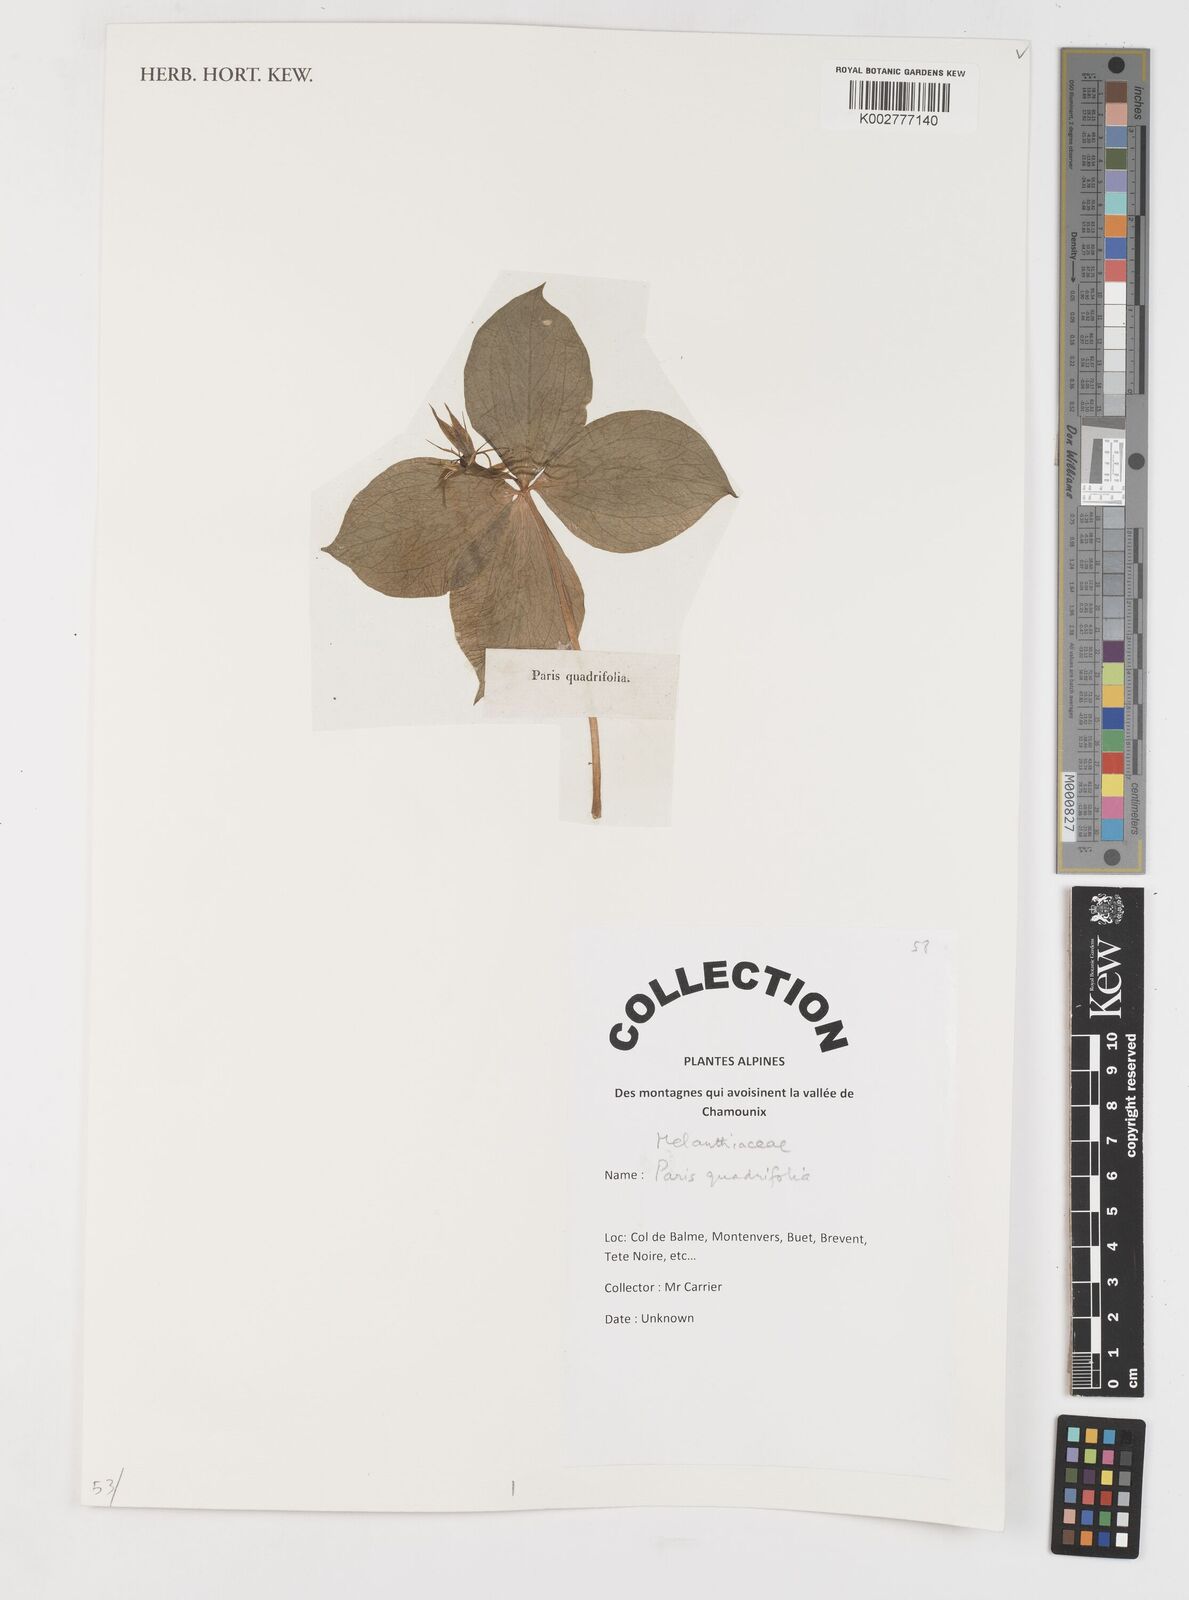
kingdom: Plantae
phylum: Tracheophyta
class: Liliopsida
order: Liliales
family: Melanthiaceae
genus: Paris
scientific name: Paris quadrifolia
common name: Herb-paris
